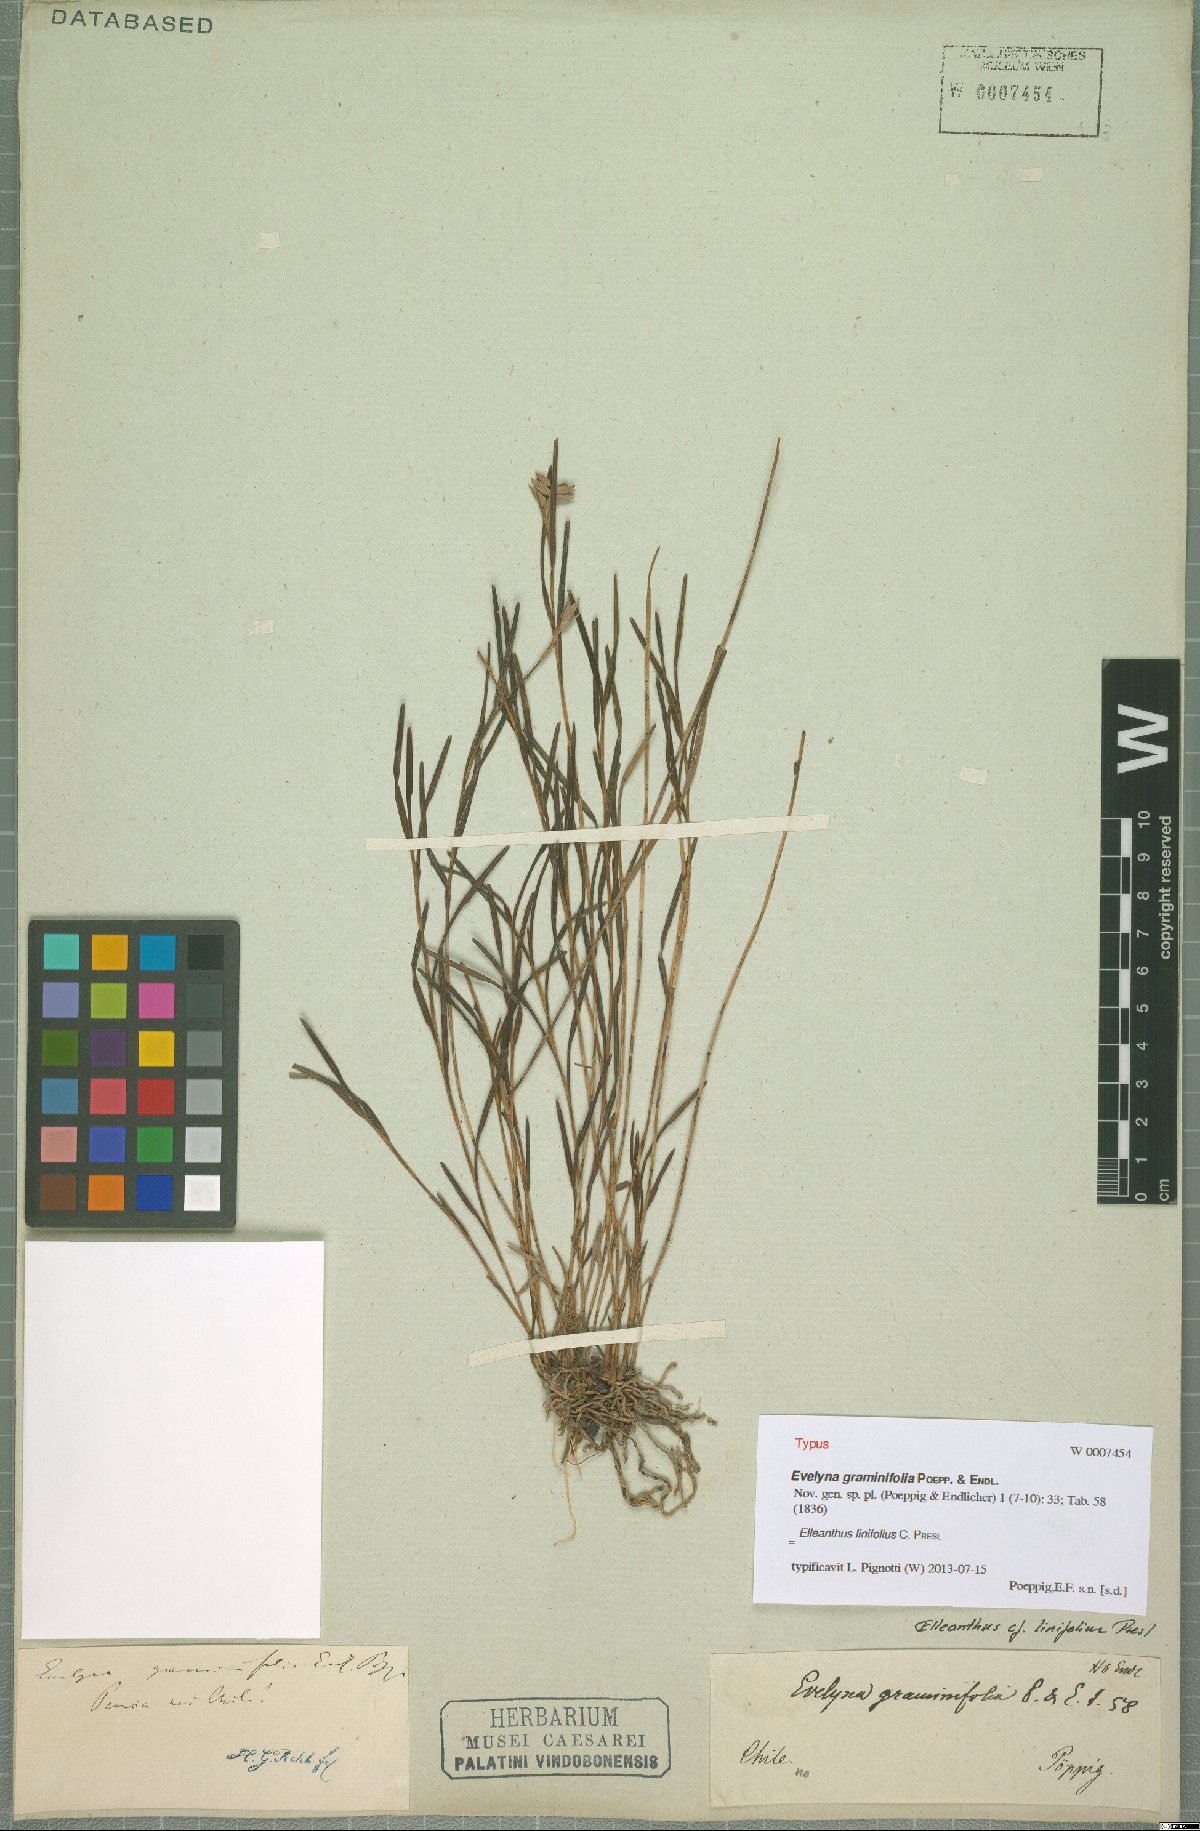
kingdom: Plantae
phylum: Tracheophyta
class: Liliopsida
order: Asparagales
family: Orchidaceae
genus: Elleanthus
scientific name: Elleanthus linifolius
